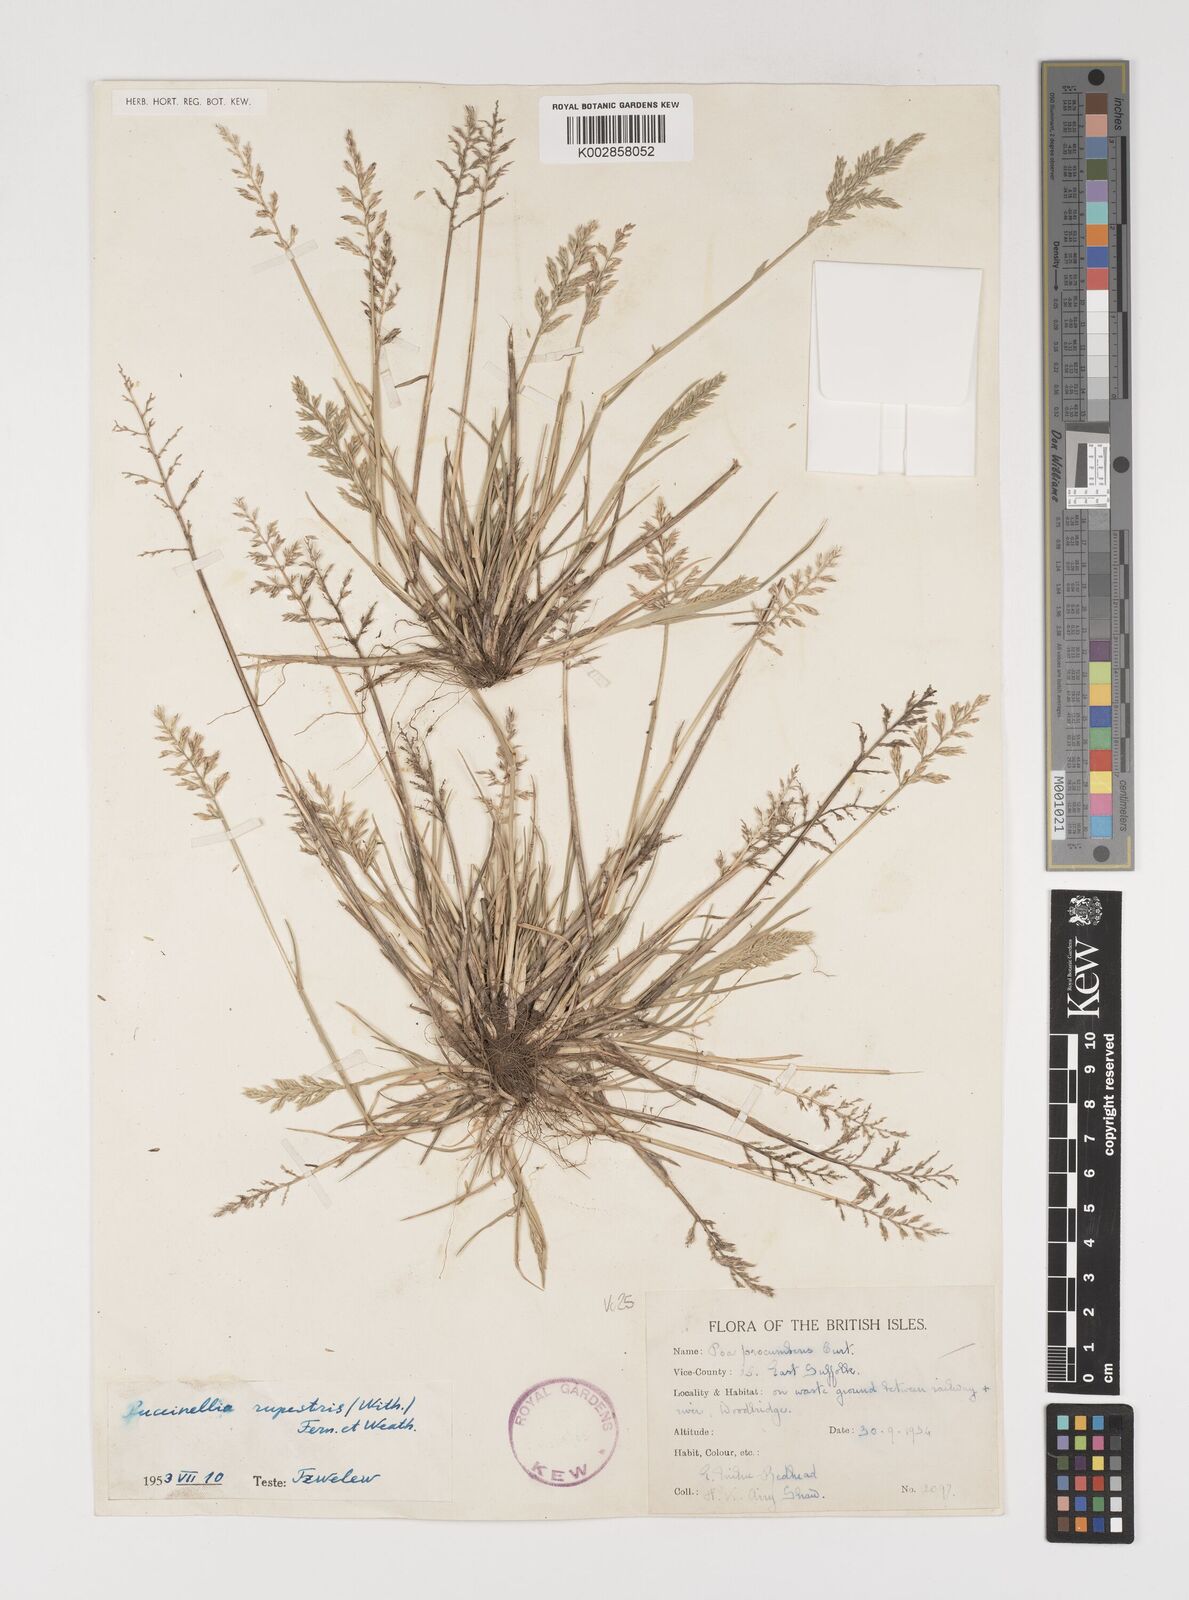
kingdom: Plantae
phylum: Tracheophyta
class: Liliopsida
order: Poales
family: Poaceae
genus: Puccinellia
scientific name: Puccinellia rupestris
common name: Stiff saltmarsh-grass
